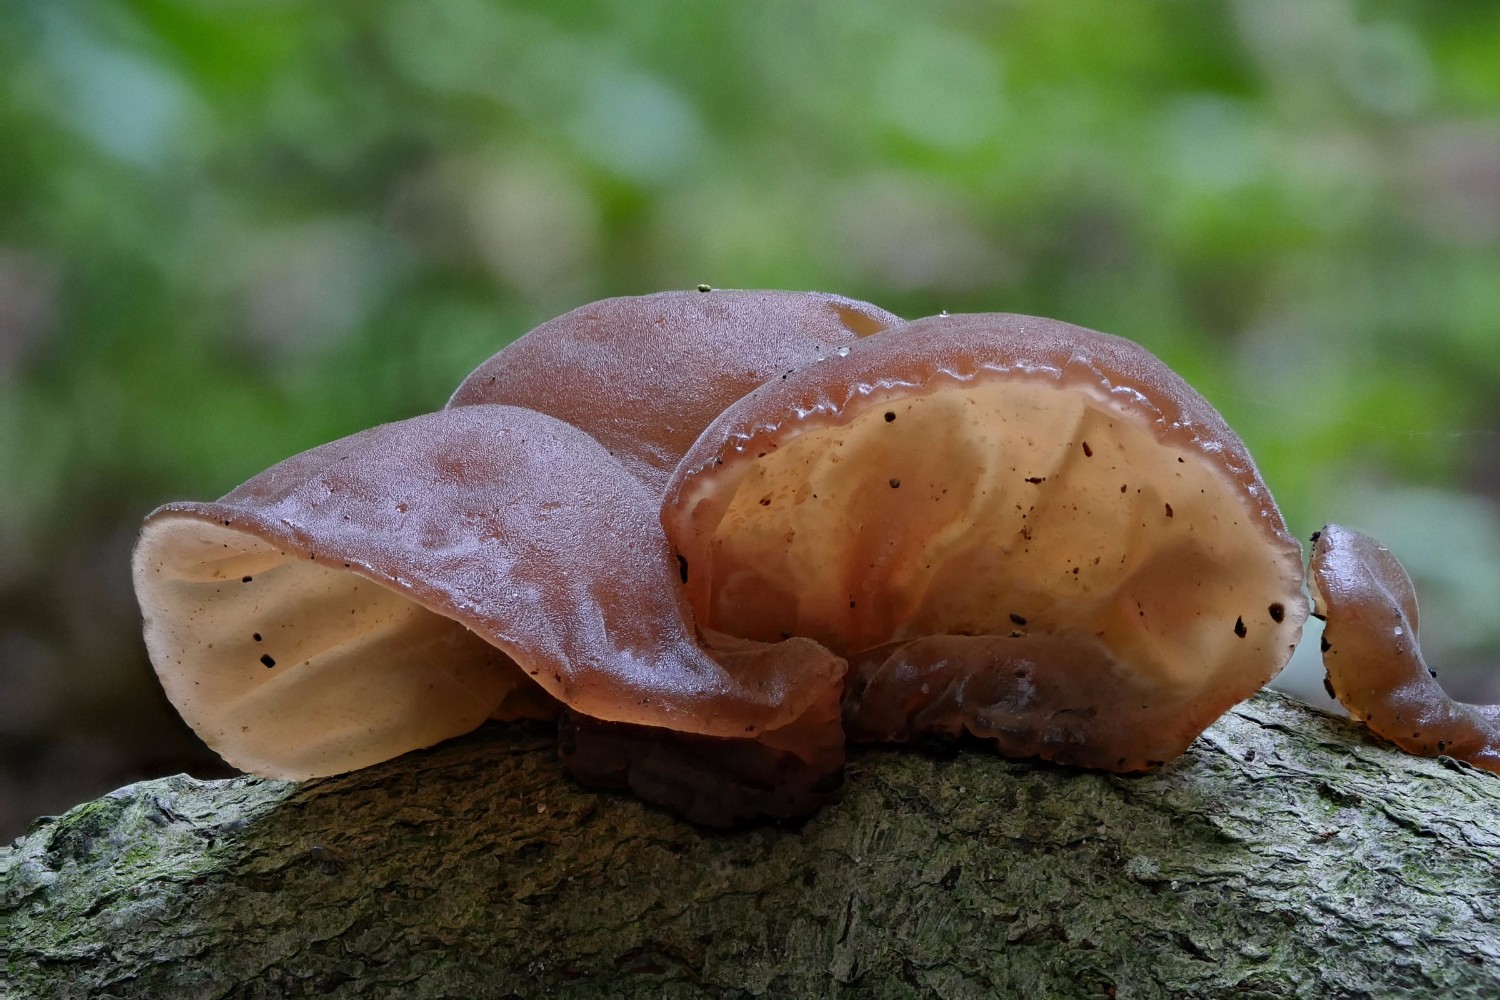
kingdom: Fungi
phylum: Basidiomycota
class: Agaricomycetes
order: Auriculariales
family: Auriculariaceae
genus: Auricularia
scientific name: Auricularia auricula-judae
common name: almindelig judasøre
